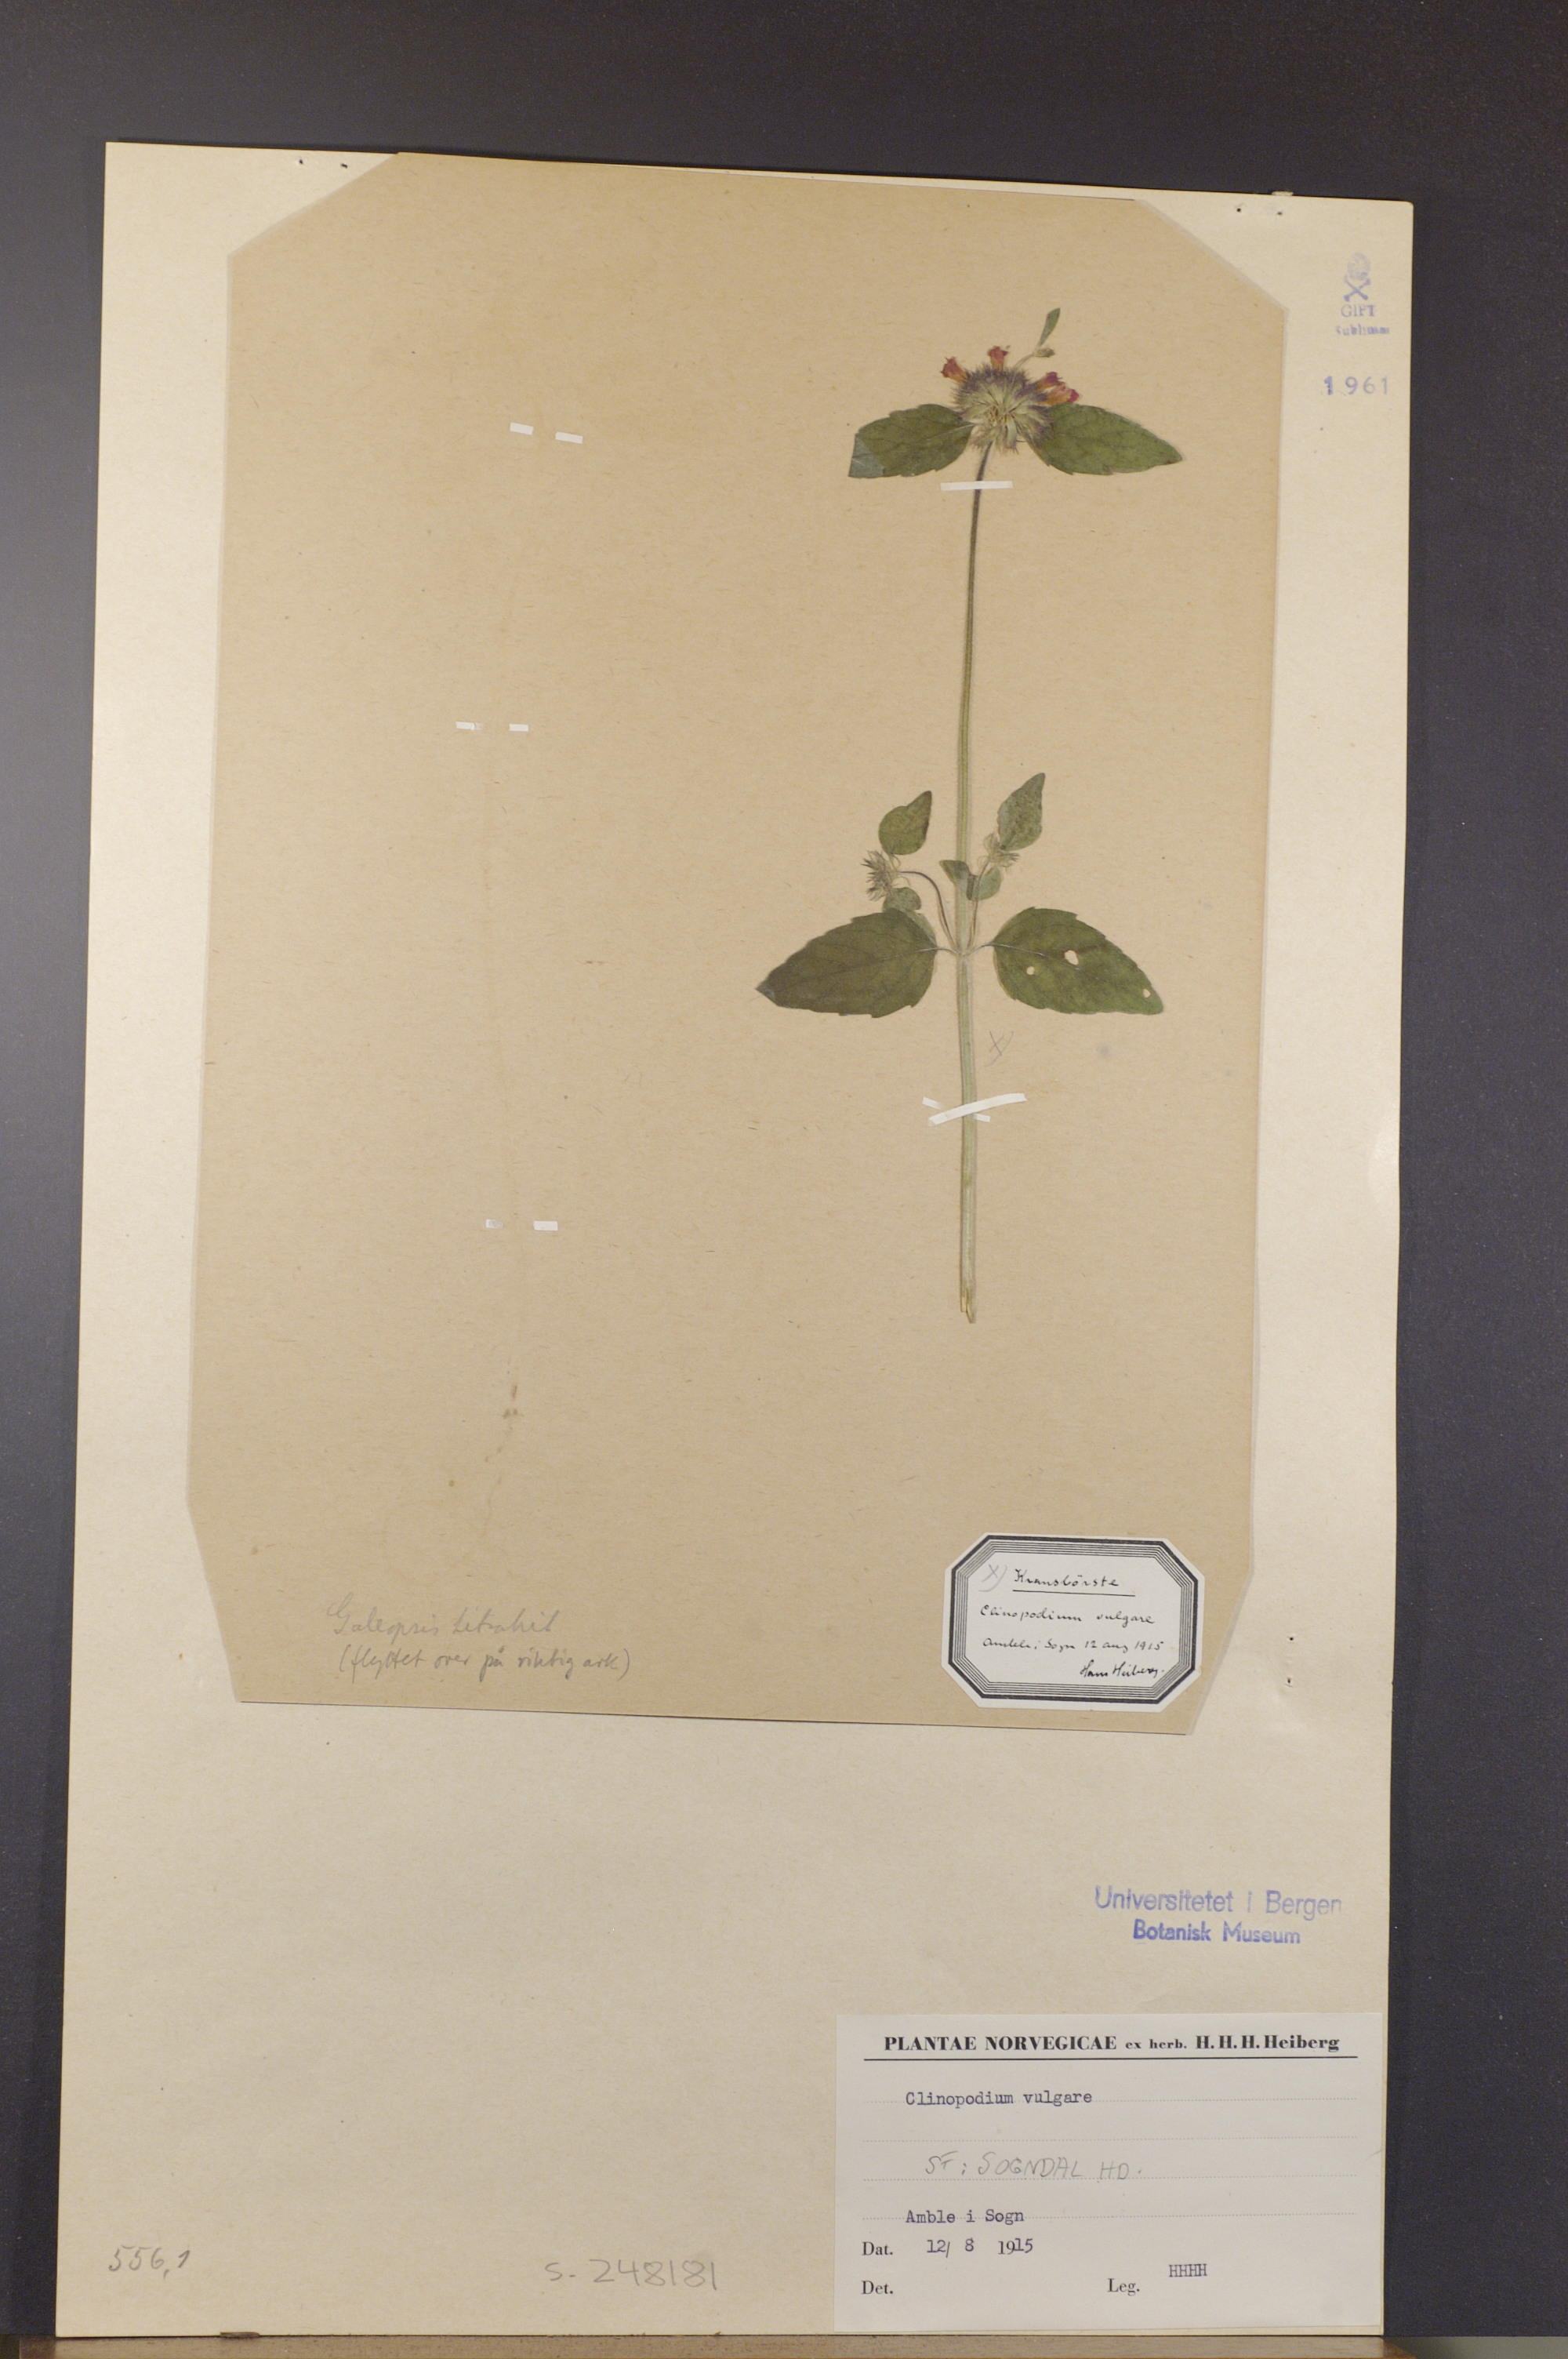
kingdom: Plantae
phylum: Tracheophyta
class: Magnoliopsida
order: Lamiales
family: Lamiaceae
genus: Clinopodium
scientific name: Clinopodium vulgare
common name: Wild basil
